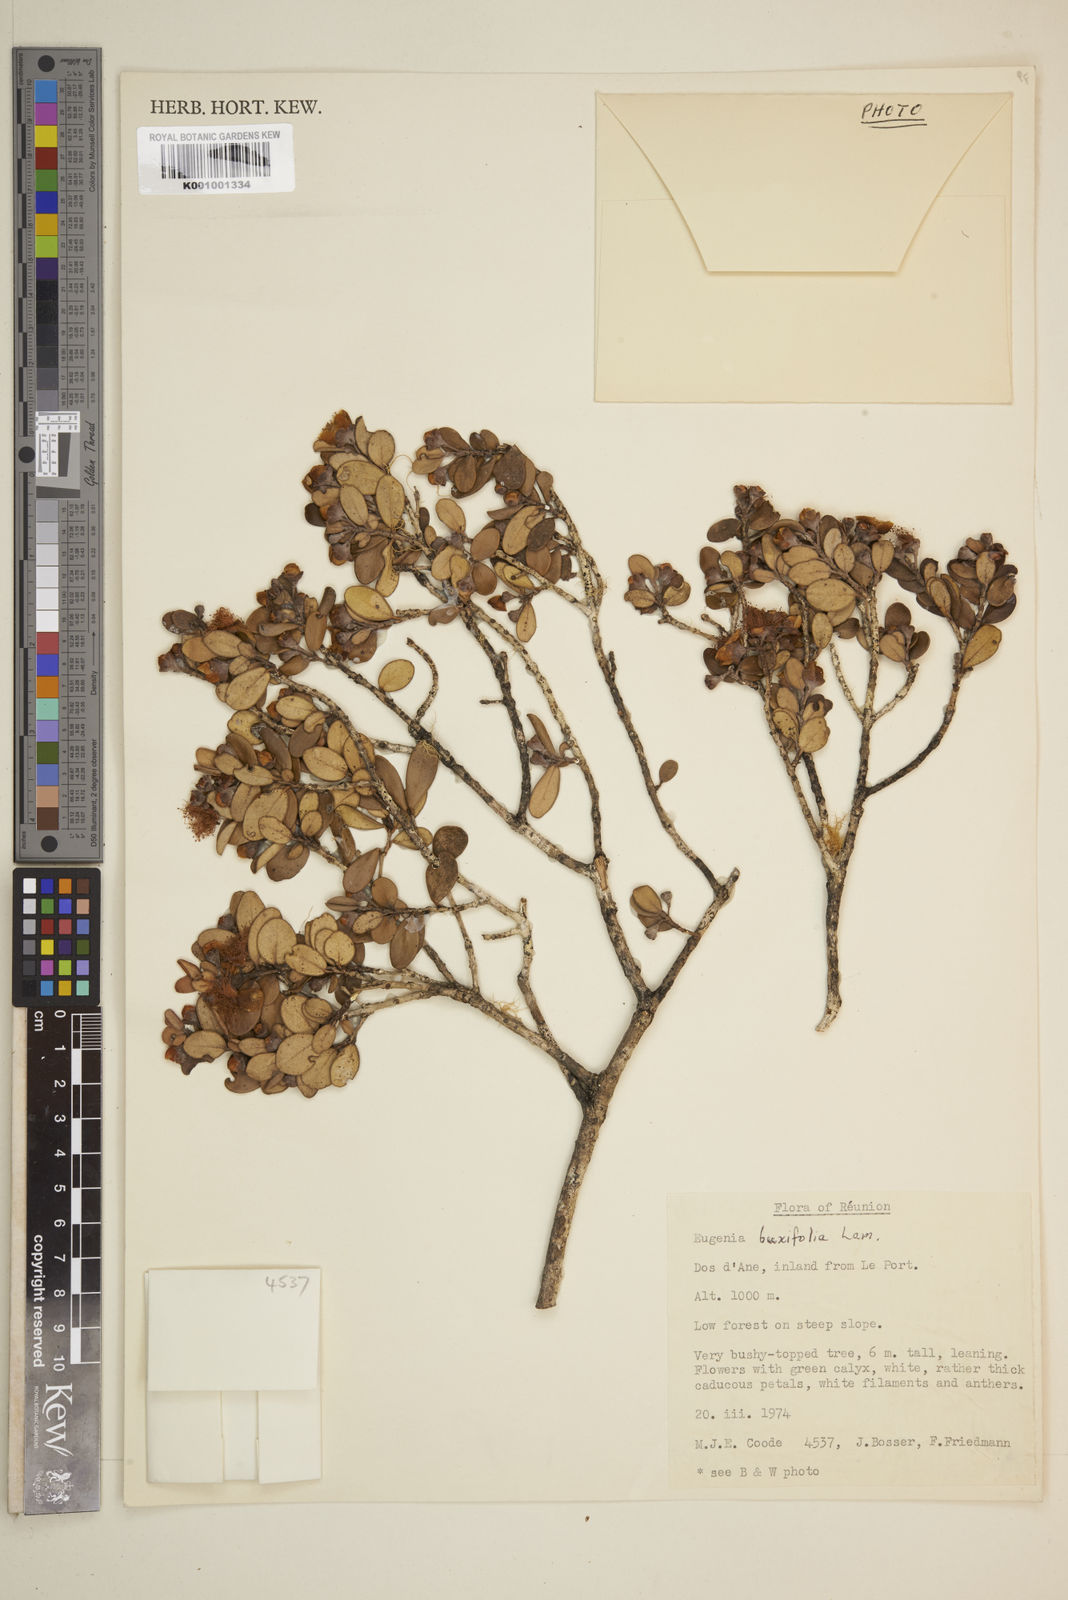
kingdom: Plantae
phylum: Tracheophyta
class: Magnoliopsida
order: Myrtales
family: Myrtaceae
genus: Eugenia
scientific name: Eugenia buxifolia
